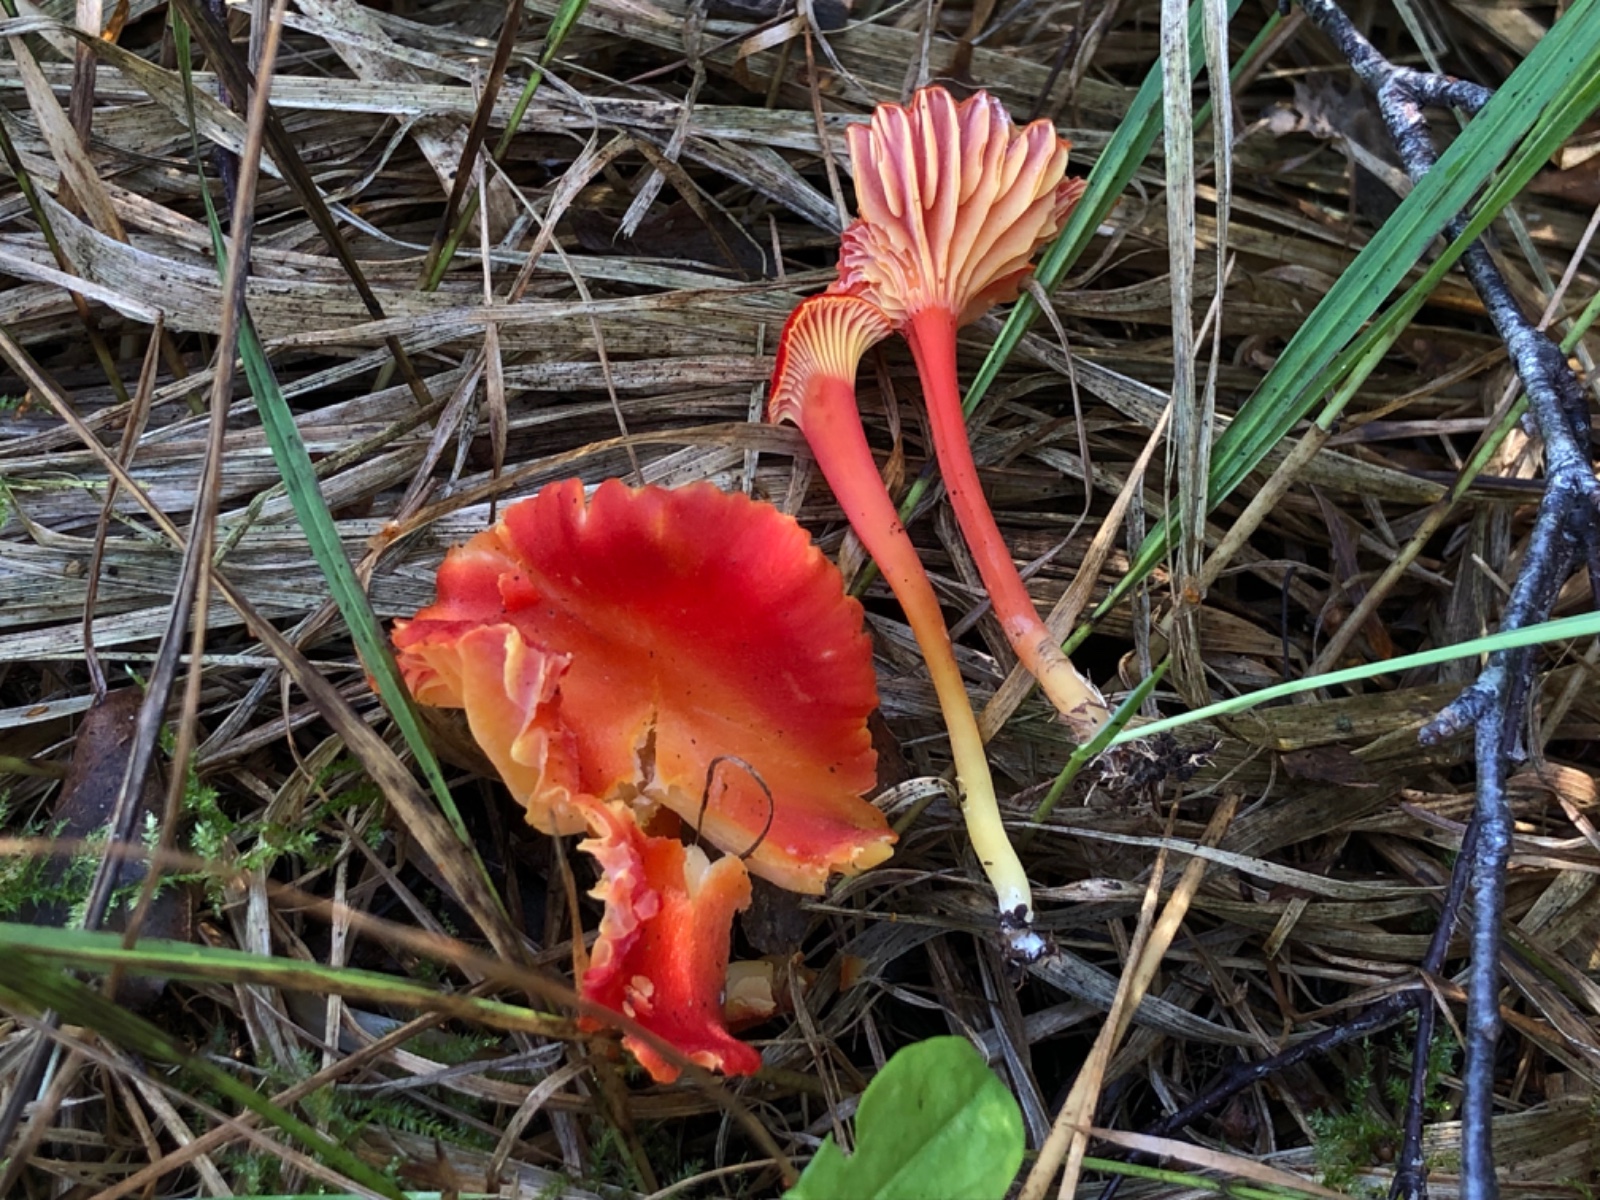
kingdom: Fungi
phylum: Basidiomycota
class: Agaricomycetes
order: Agaricales
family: Hygrophoraceae
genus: Hygrocybe
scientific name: Hygrocybe cantharellus
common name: kantarel-vokshat
